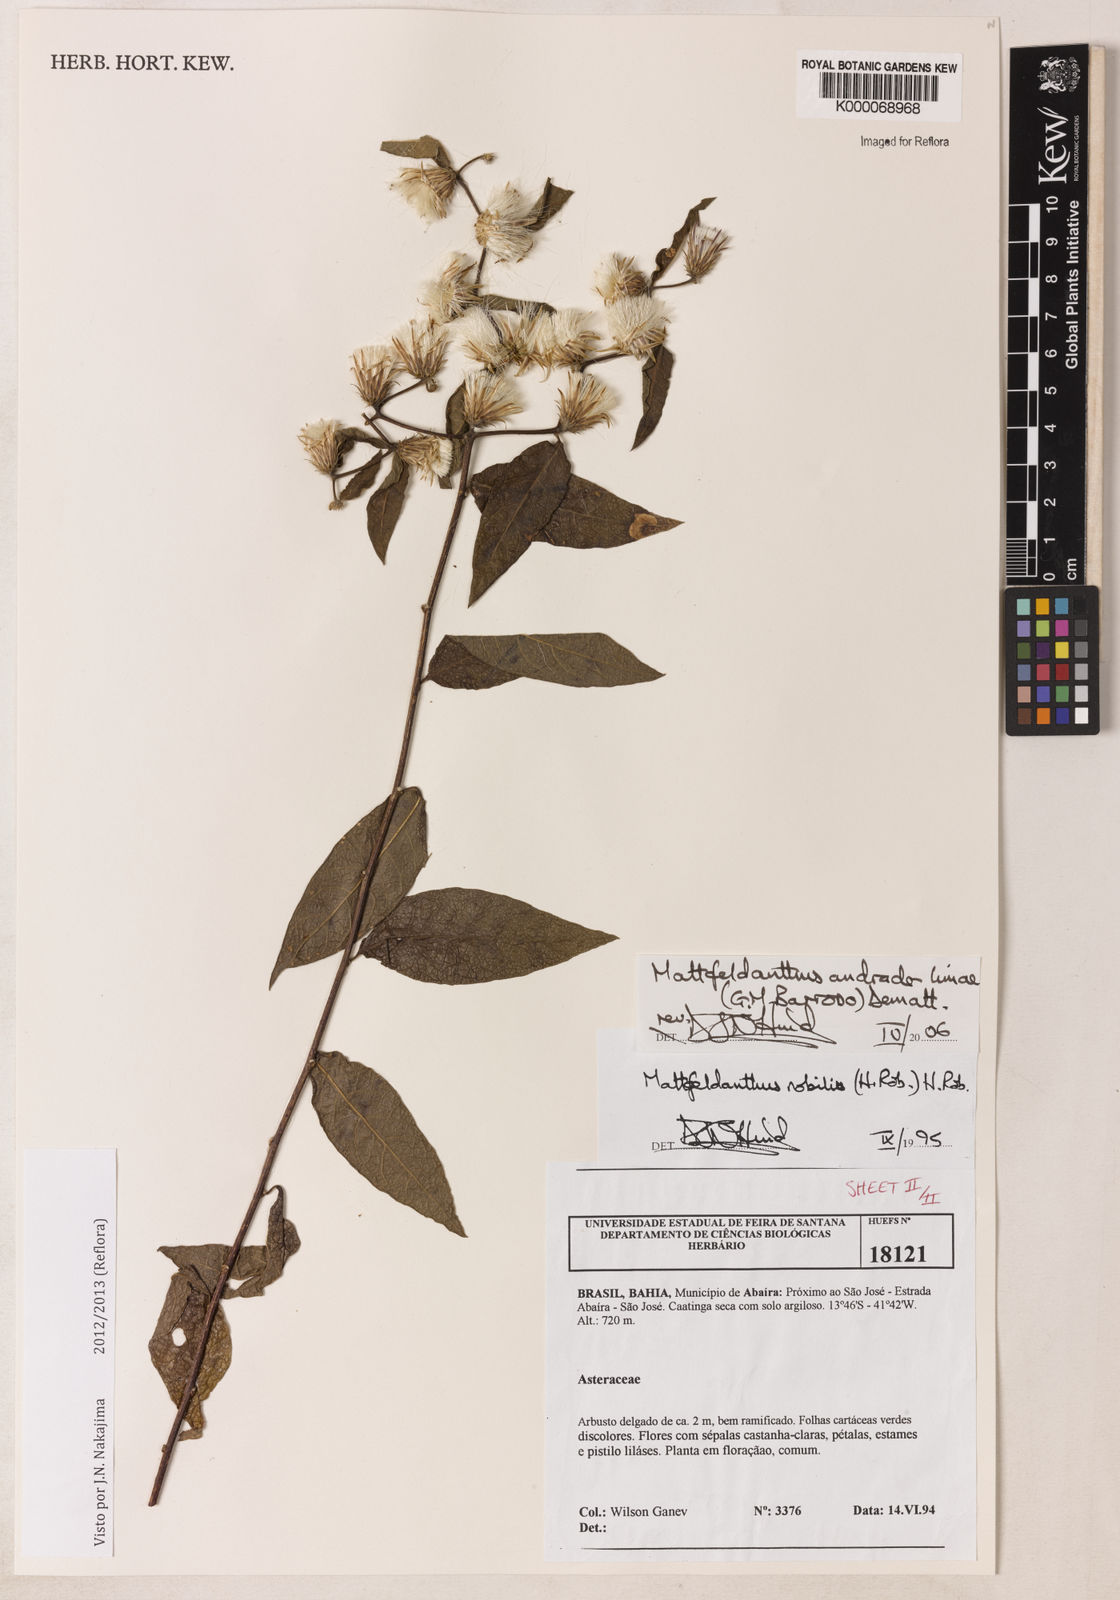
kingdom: Plantae
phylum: Tracheophyta
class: Magnoliopsida
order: Asterales
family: Asteraceae
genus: Mattfeldanthus
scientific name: Mattfeldanthus andrade-limae
